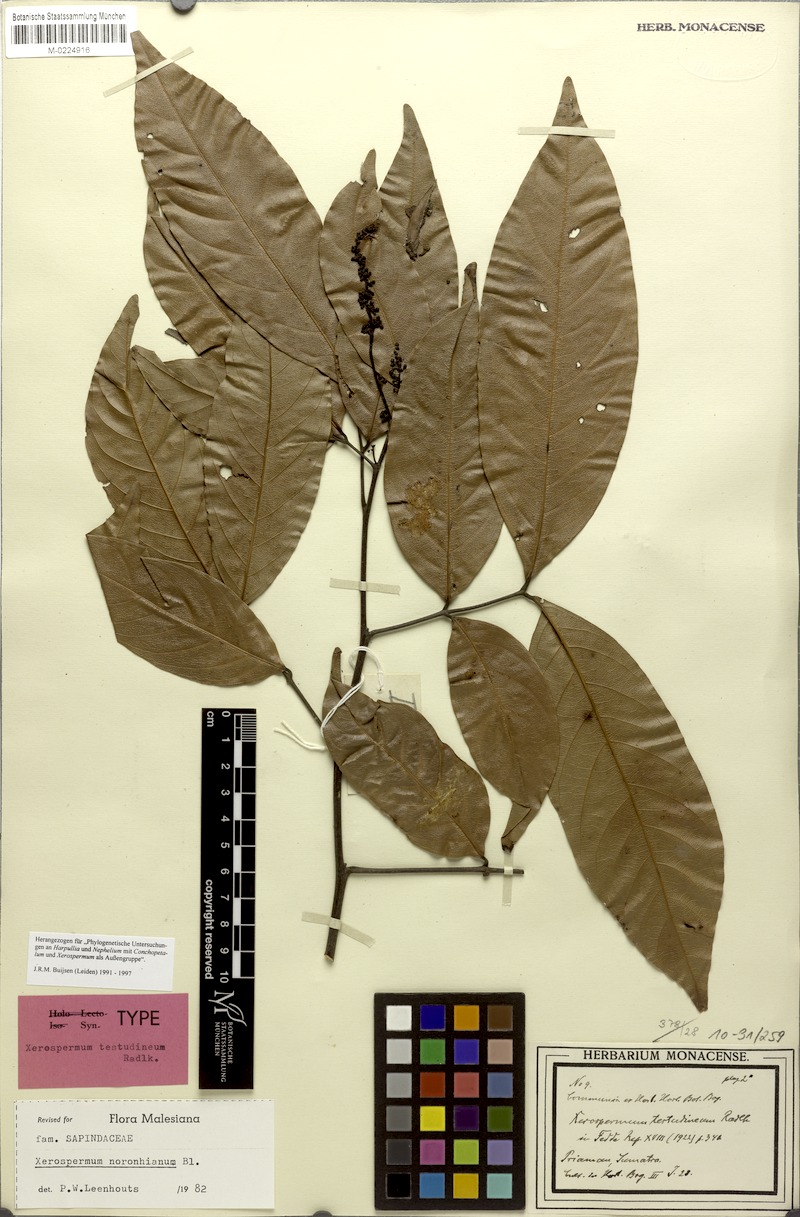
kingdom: Plantae
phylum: Tracheophyta
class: Magnoliopsida
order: Sapindales
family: Sapindaceae
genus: Xerospermum
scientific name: Xerospermum noronhianum
